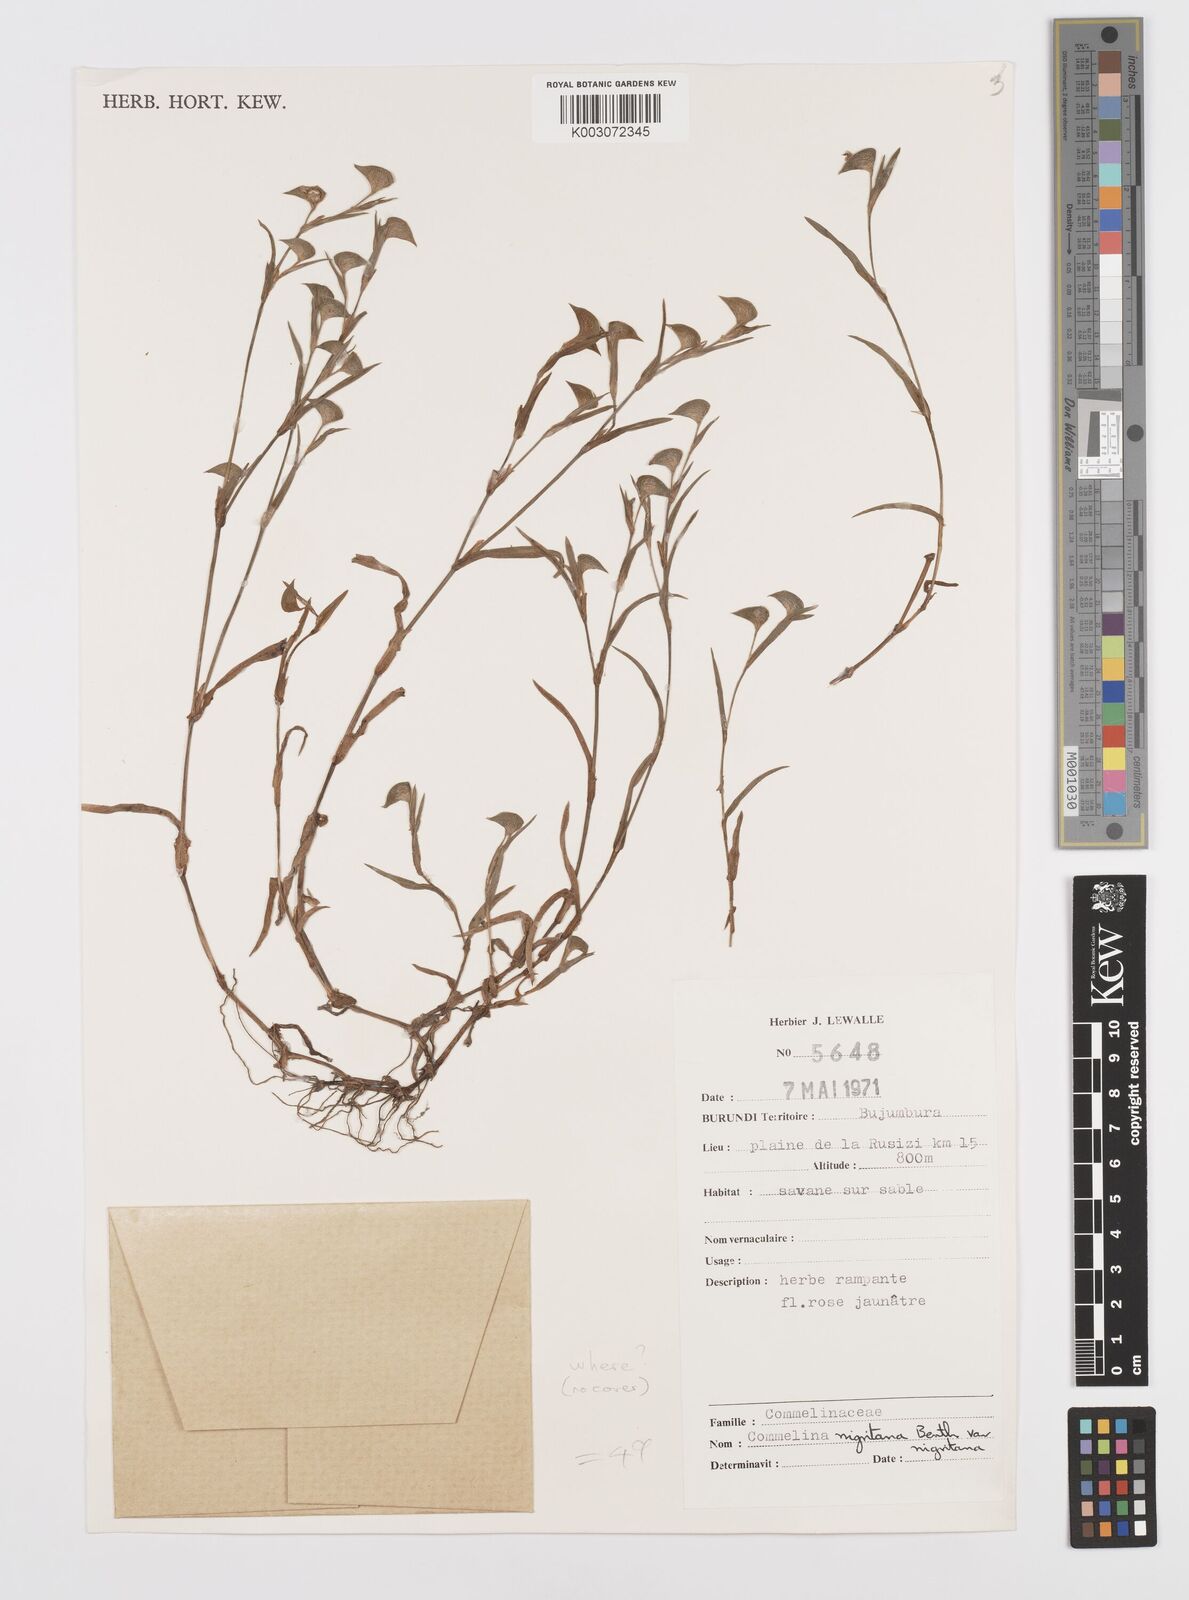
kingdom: Plantae
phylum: Tracheophyta
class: Liliopsida
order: Commelinales
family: Commelinaceae
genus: Commelina
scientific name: Commelina
